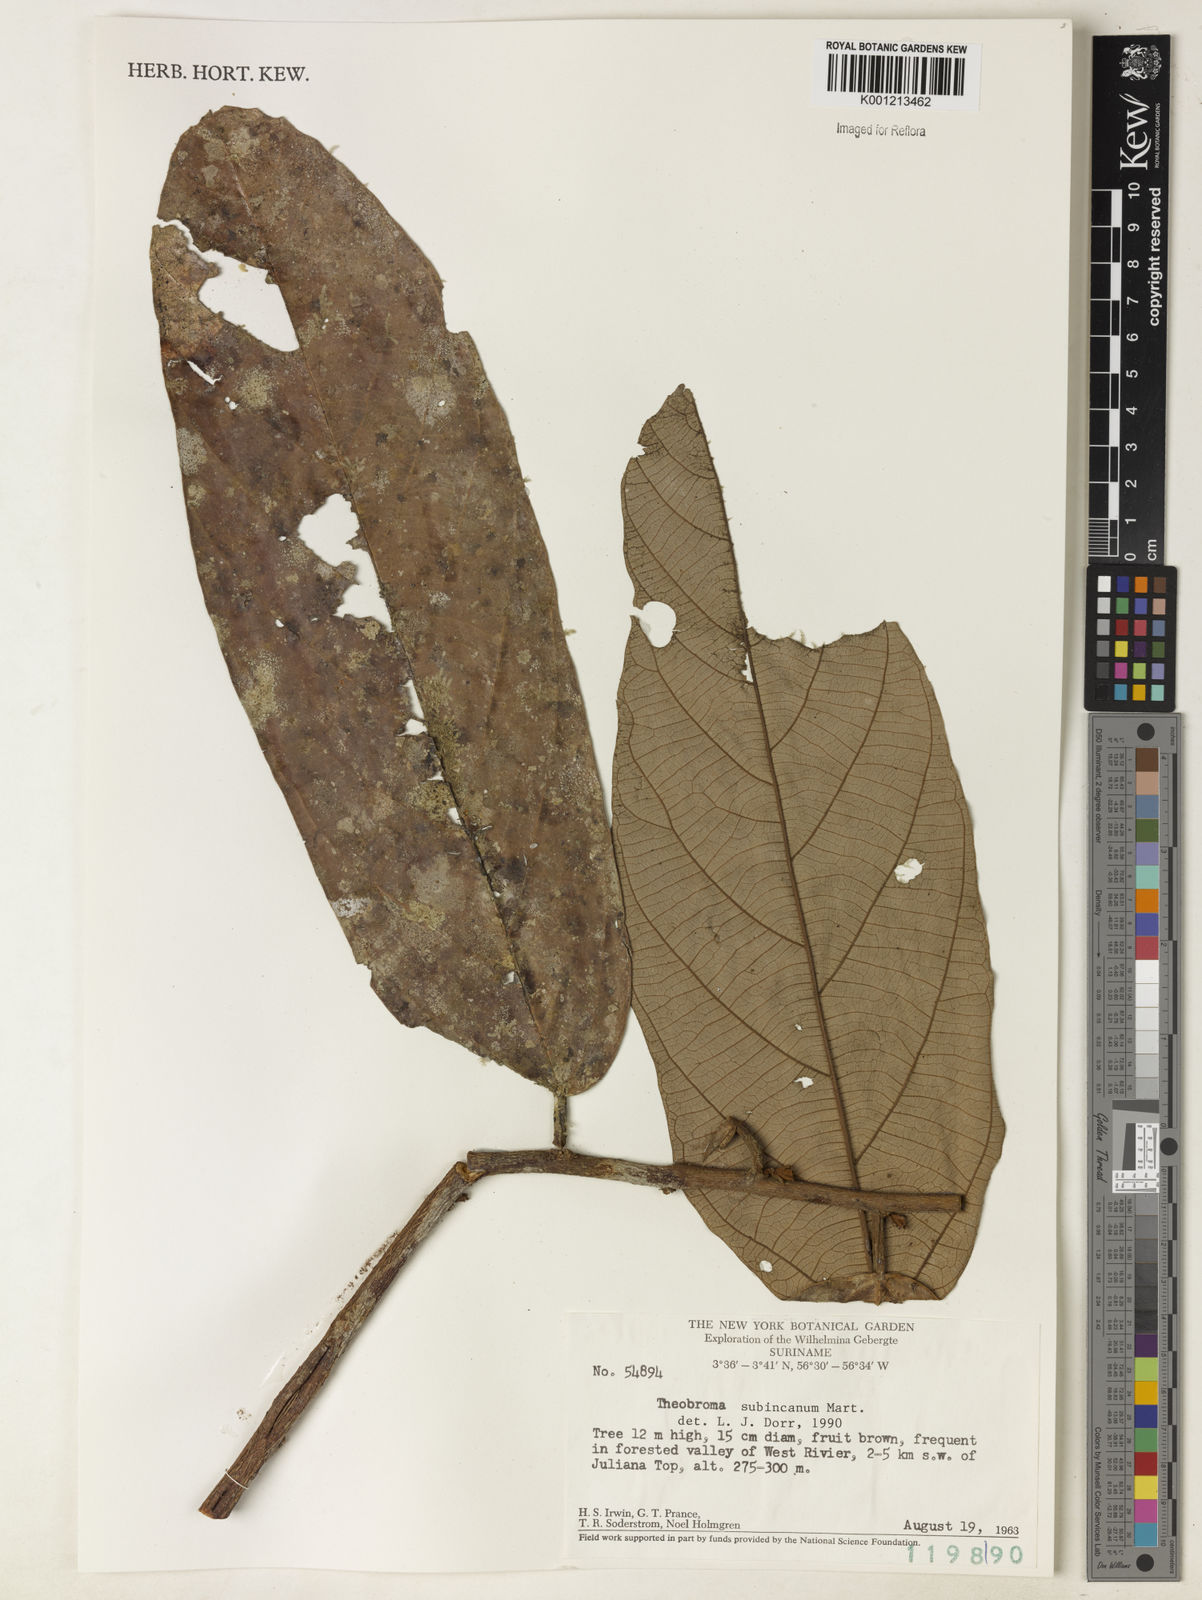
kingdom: Plantae
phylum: Tracheophyta
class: Magnoliopsida
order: Malvales
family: Malvaceae
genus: Theobroma
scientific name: Theobroma subincanum
